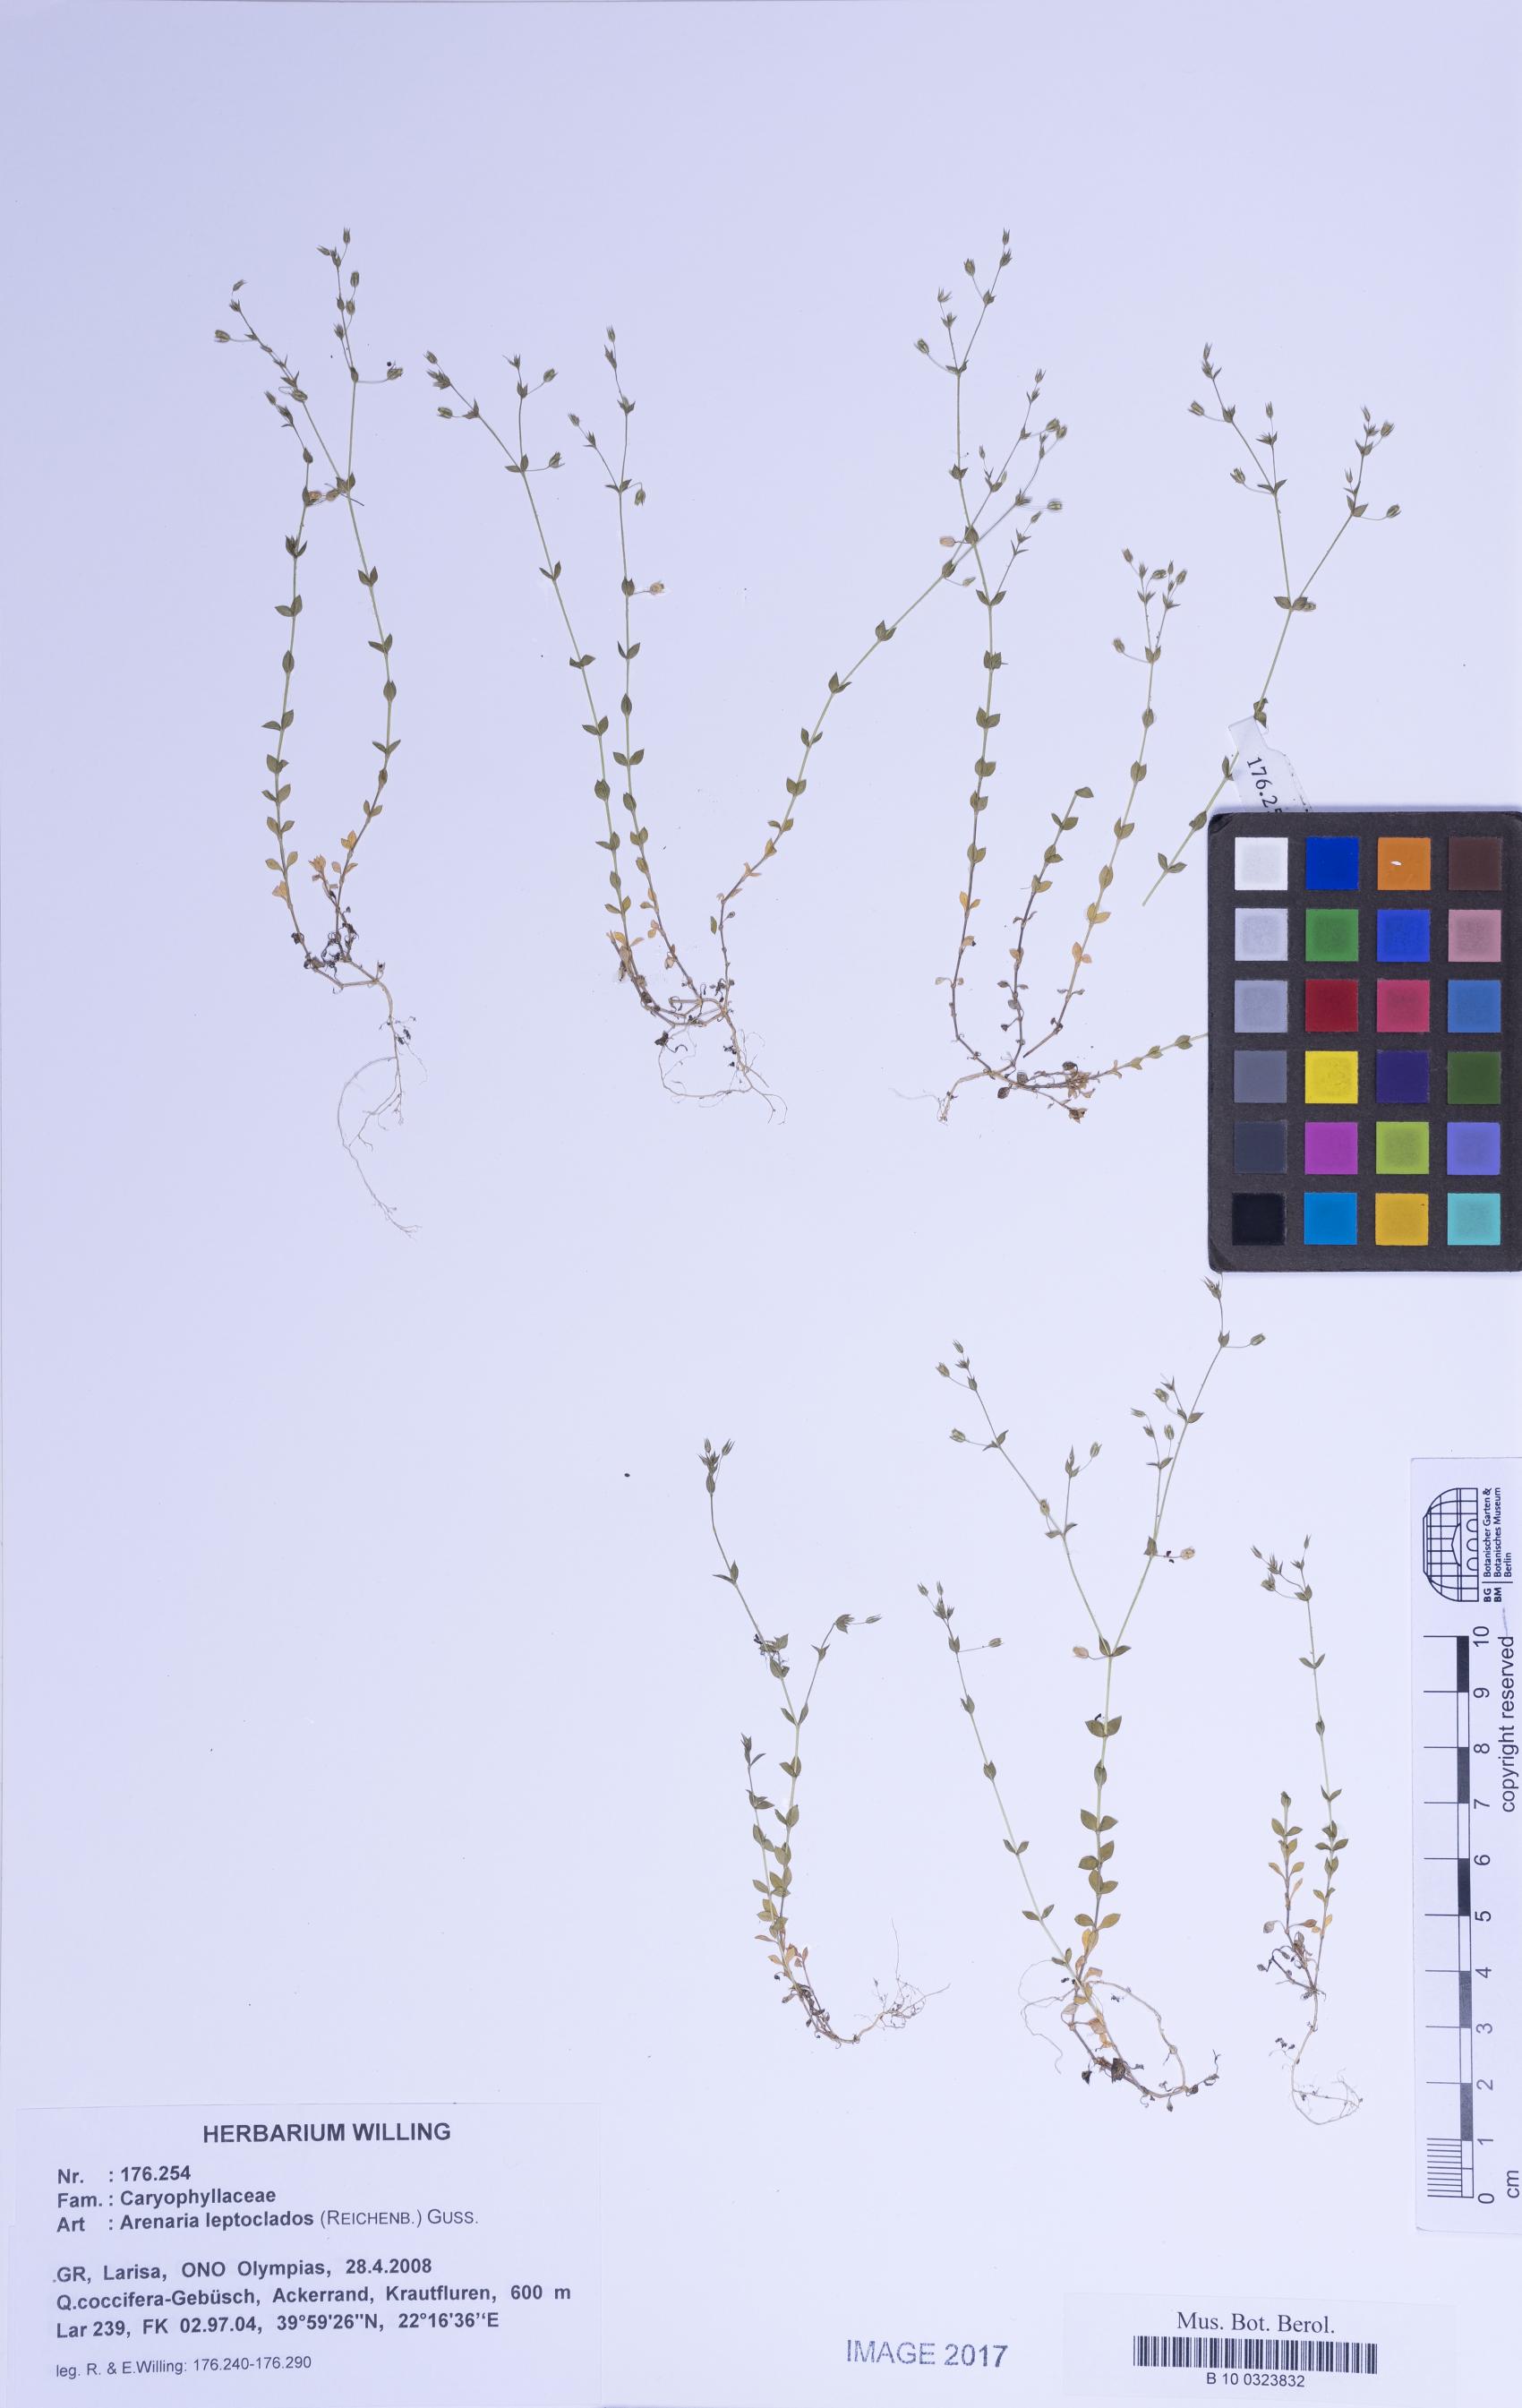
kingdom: Plantae
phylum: Tracheophyta
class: Magnoliopsida
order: Caryophyllales
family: Caryophyllaceae
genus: Arenaria
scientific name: Arenaria leptoclados
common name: Thyme-leaved sandwort
